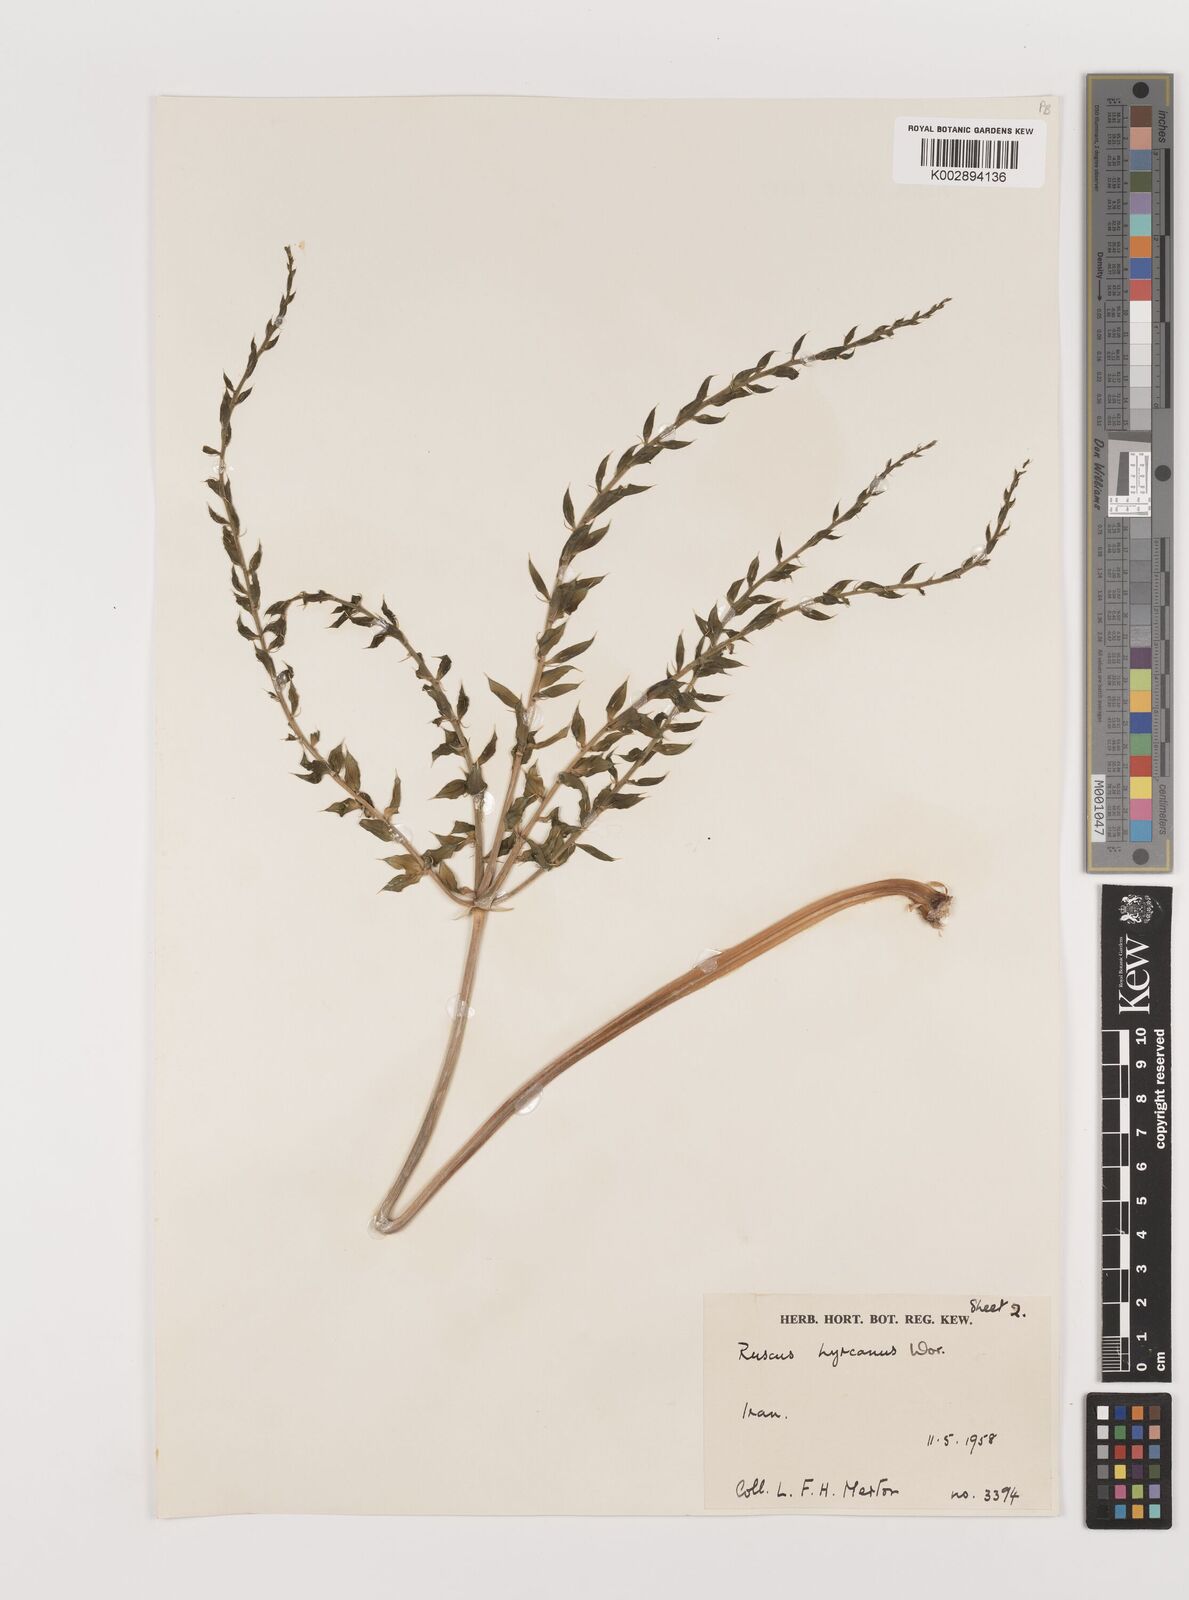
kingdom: Plantae
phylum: Tracheophyta
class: Liliopsida
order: Asparagales
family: Asparagaceae
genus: Ruscus
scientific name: Ruscus hyrcanus
